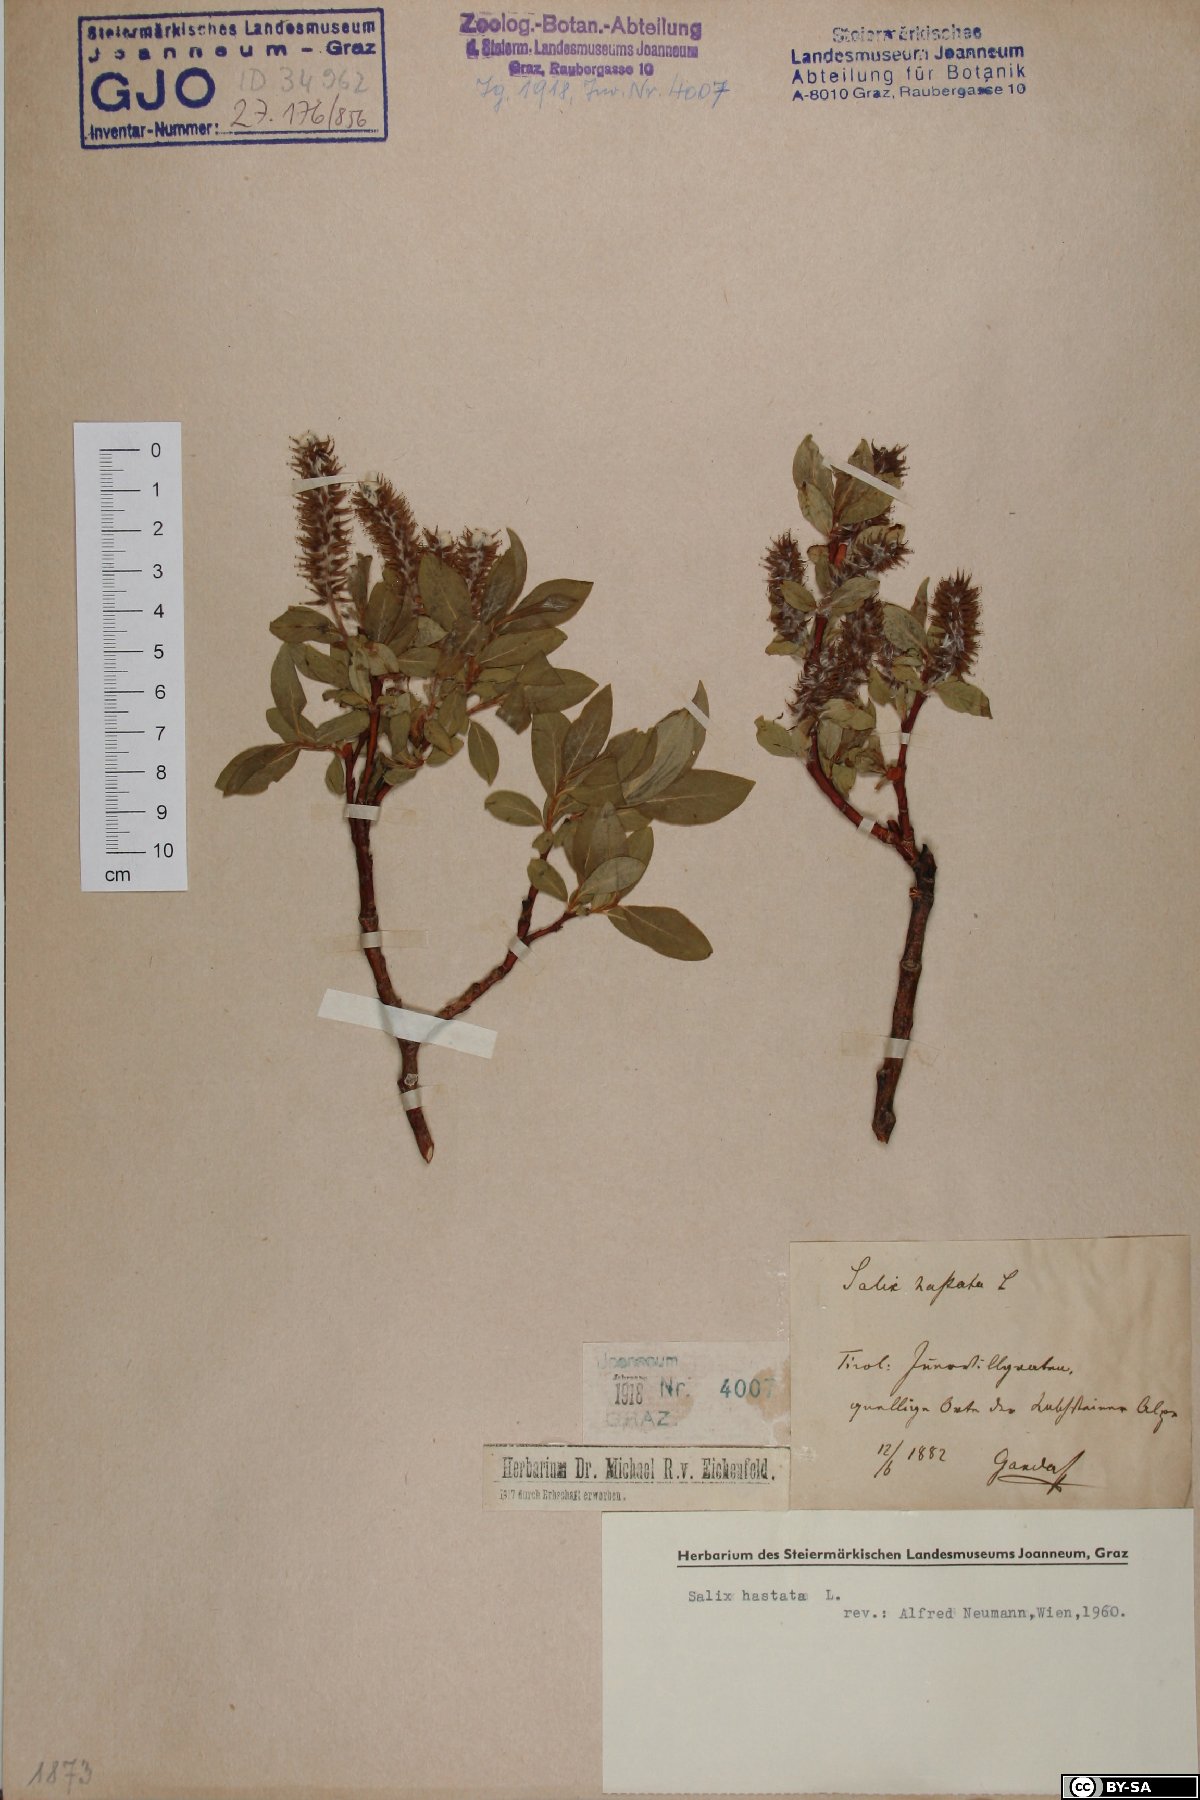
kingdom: Plantae
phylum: Tracheophyta
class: Magnoliopsida
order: Malpighiales
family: Salicaceae
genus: Salix
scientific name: Salix hastata
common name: Halberd willow
